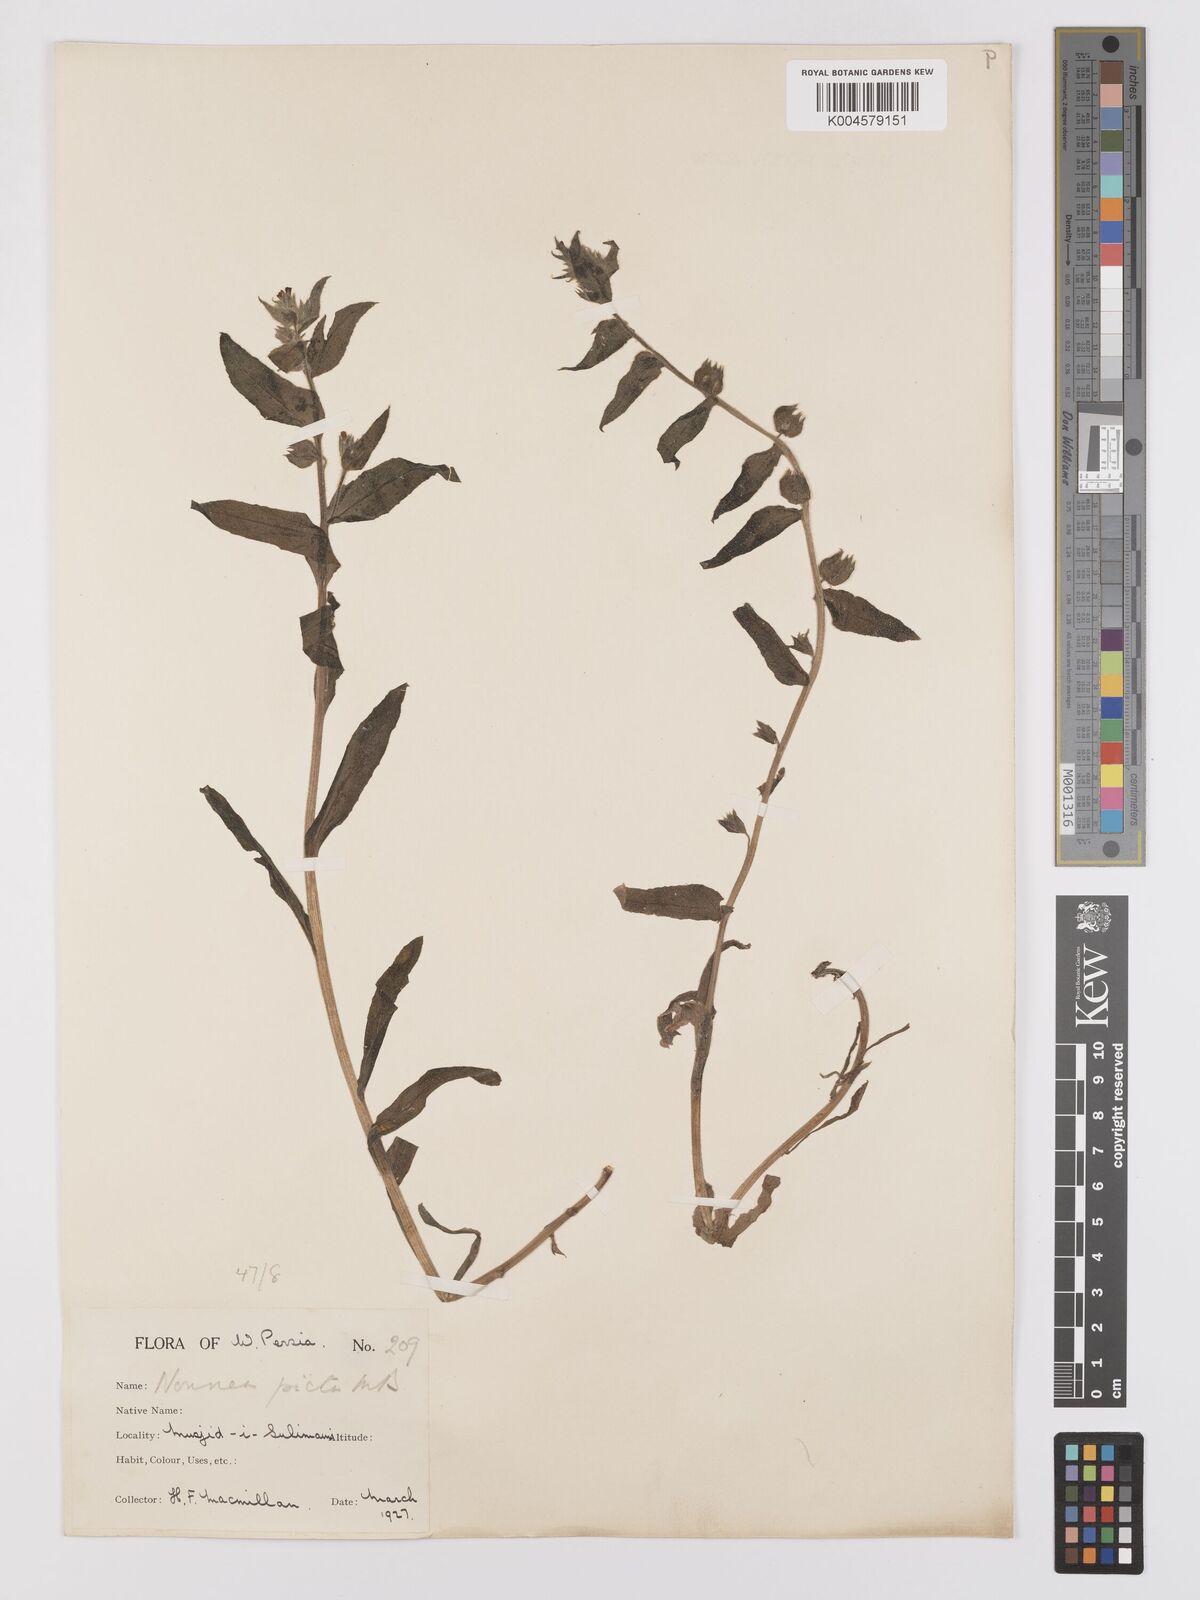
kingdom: Plantae
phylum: Tracheophyta
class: Magnoliopsida
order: Boraginales
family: Boraginaceae
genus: Nonea
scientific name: Nonea
